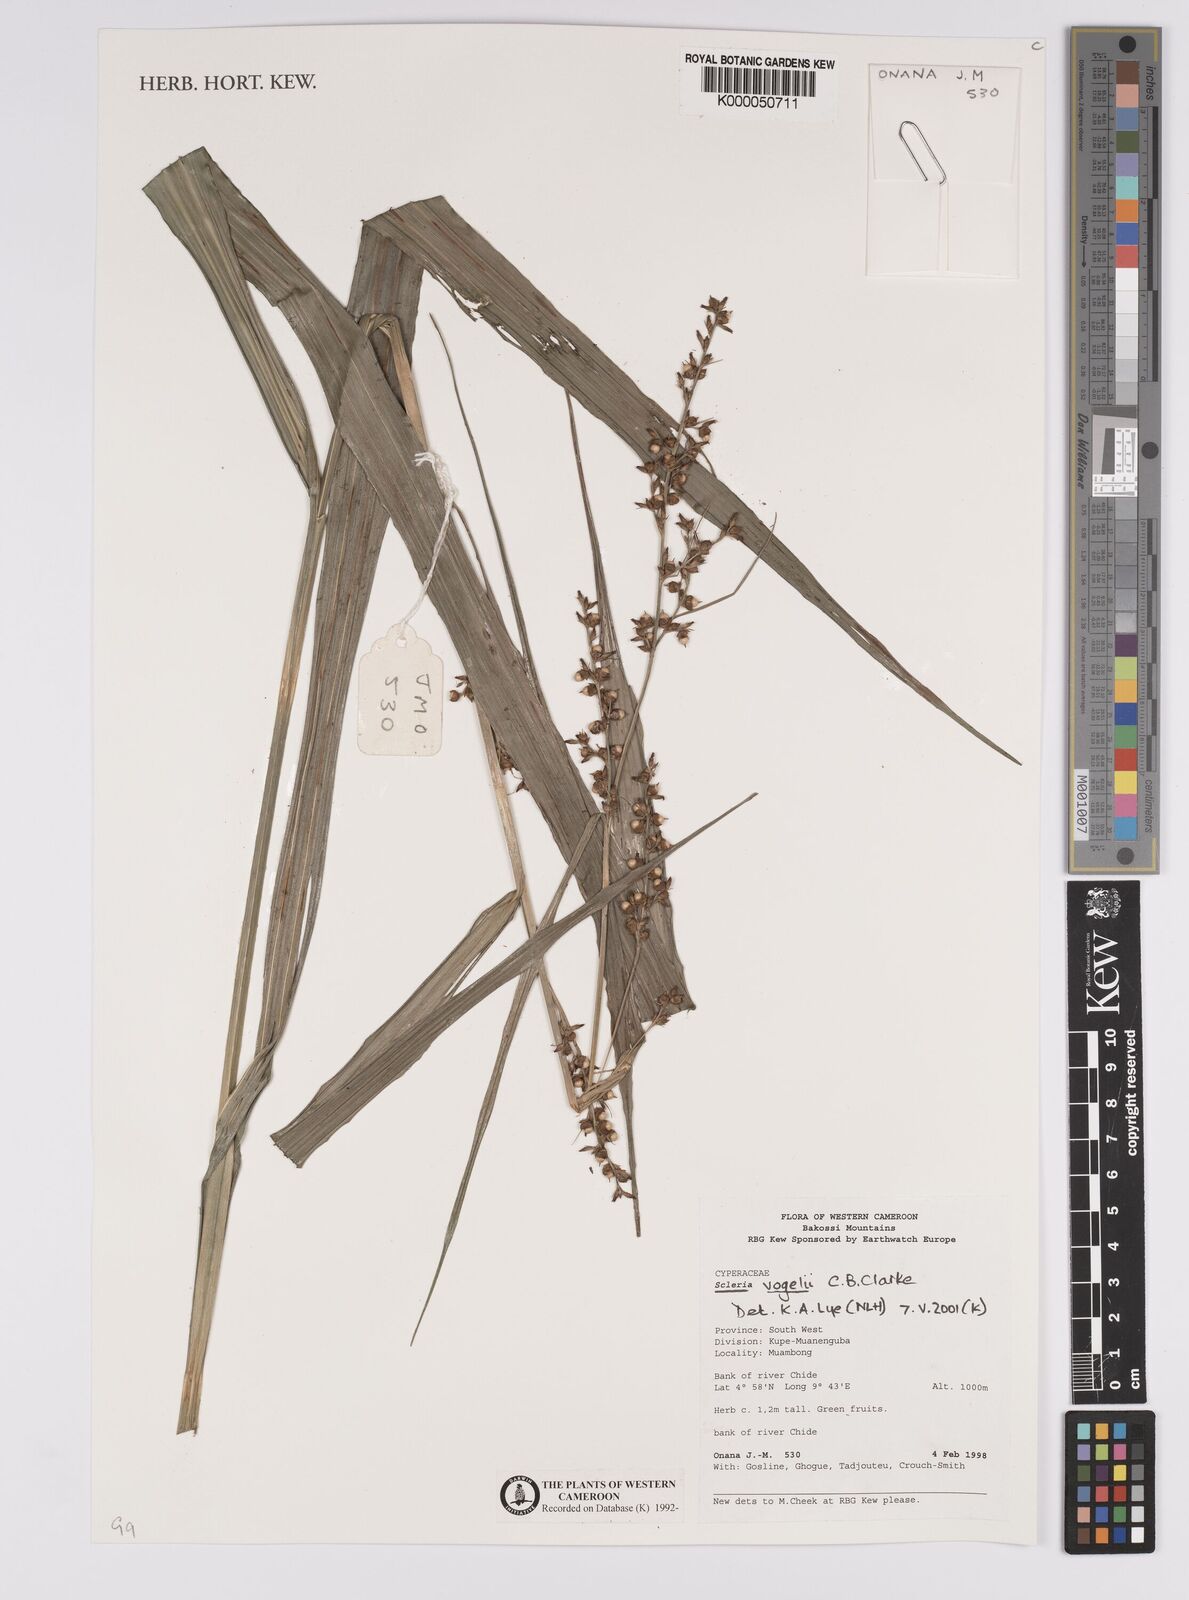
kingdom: Plantae
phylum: Tracheophyta
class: Liliopsida
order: Poales
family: Cyperaceae
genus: Scleria
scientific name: Scleria vogelii
